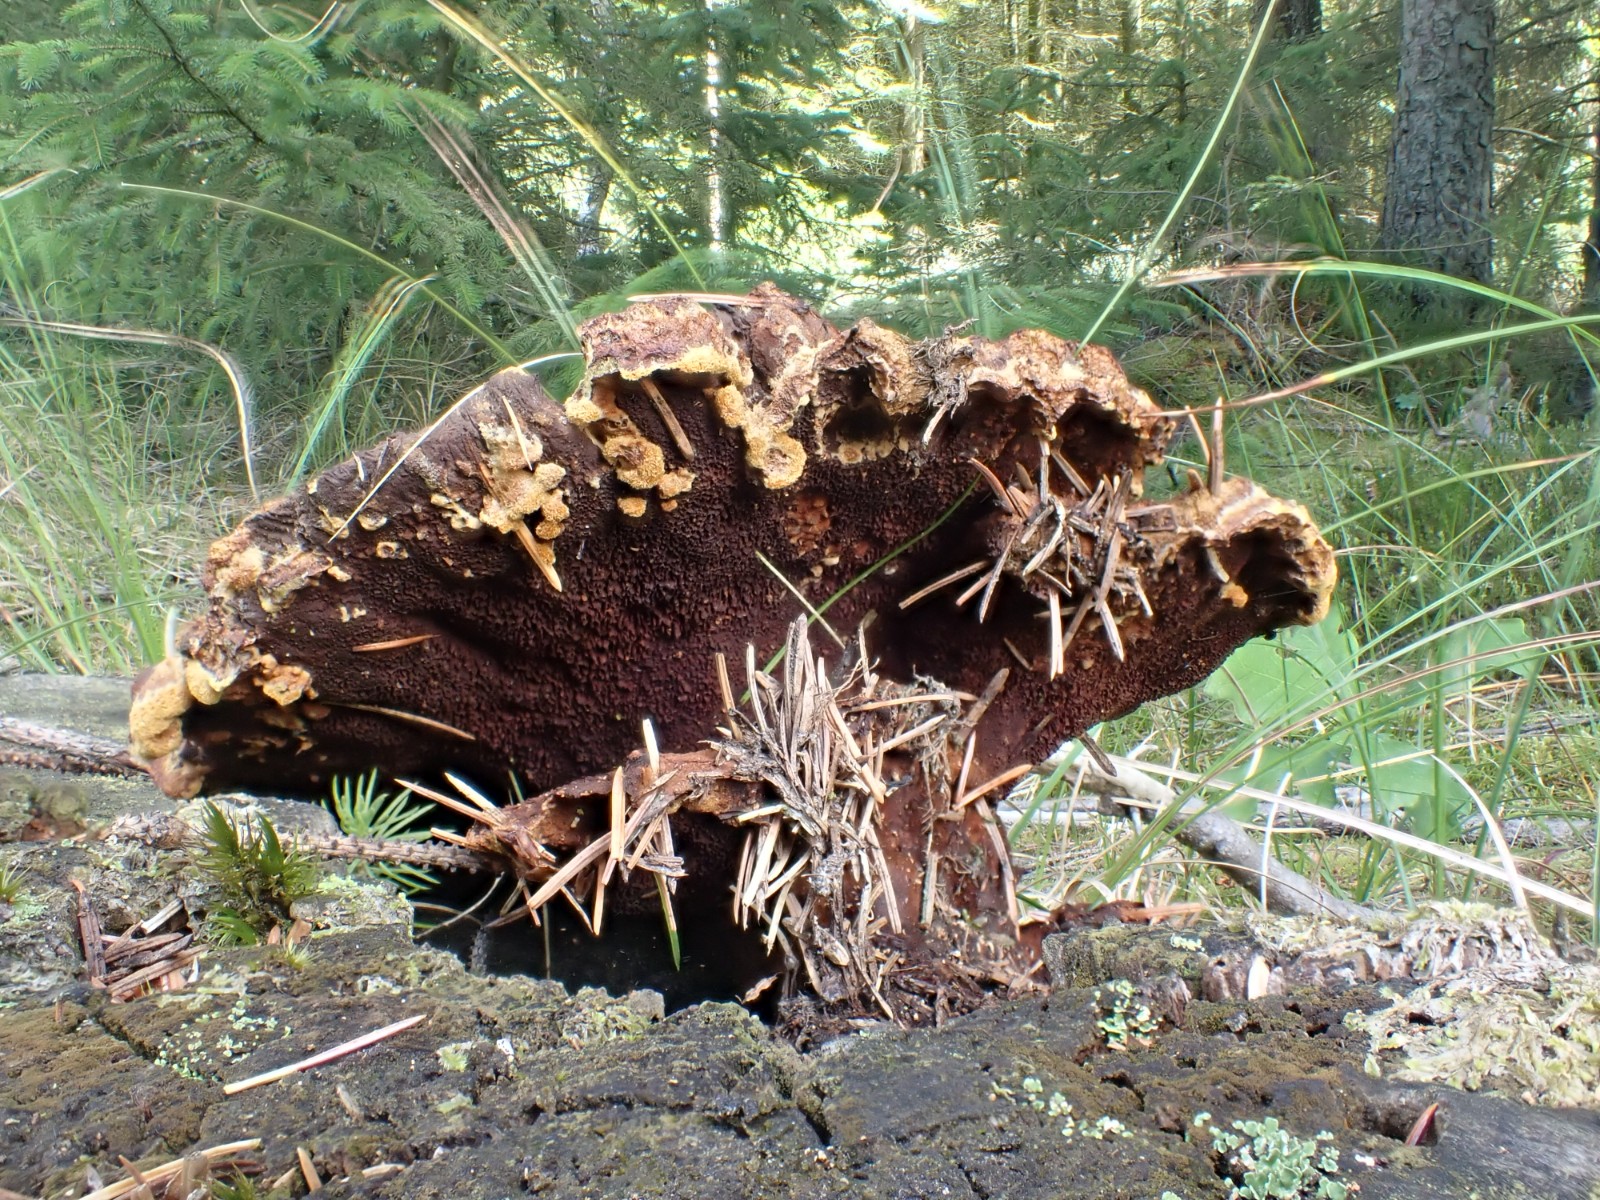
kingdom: Fungi
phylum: Basidiomycota
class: Agaricomycetes
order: Polyporales
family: Laetiporaceae
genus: Phaeolus
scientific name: Phaeolus schweinitzii
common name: brunporesvamp
